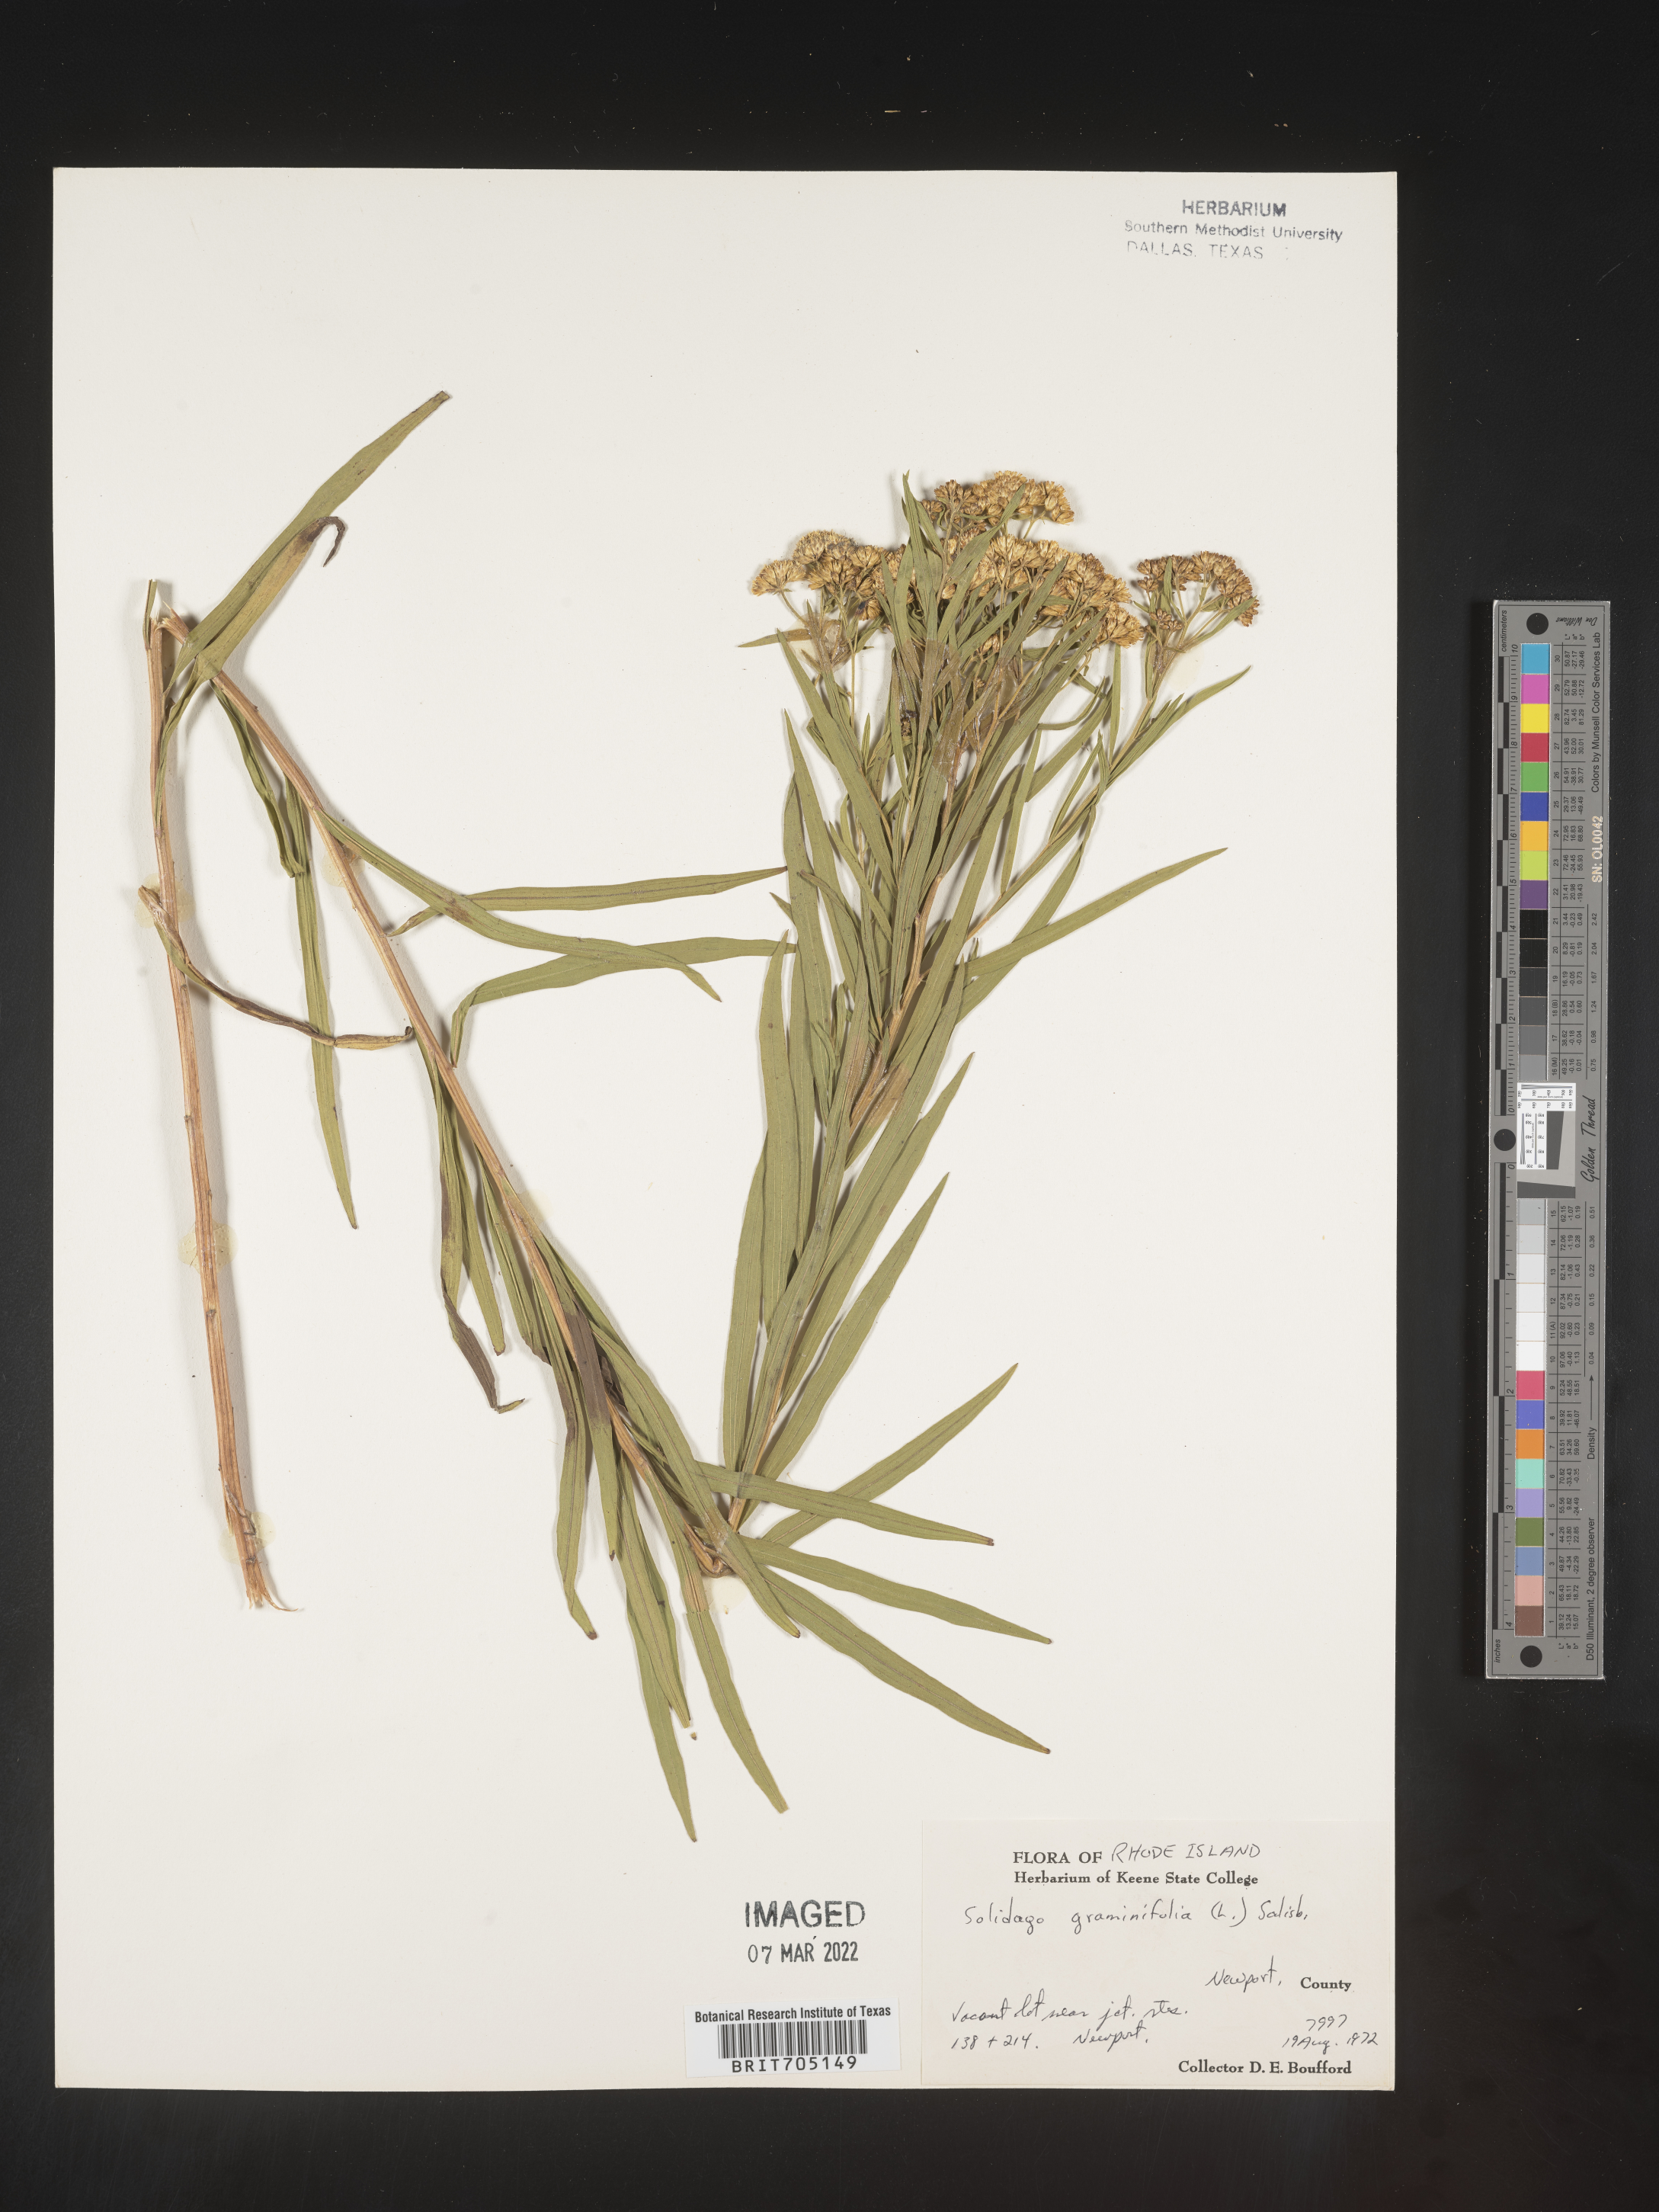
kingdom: Plantae
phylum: Tracheophyta
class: Magnoliopsida
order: Asterales
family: Asteraceae
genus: Euthamia
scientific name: Euthamia graminifolia
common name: Common goldentop
